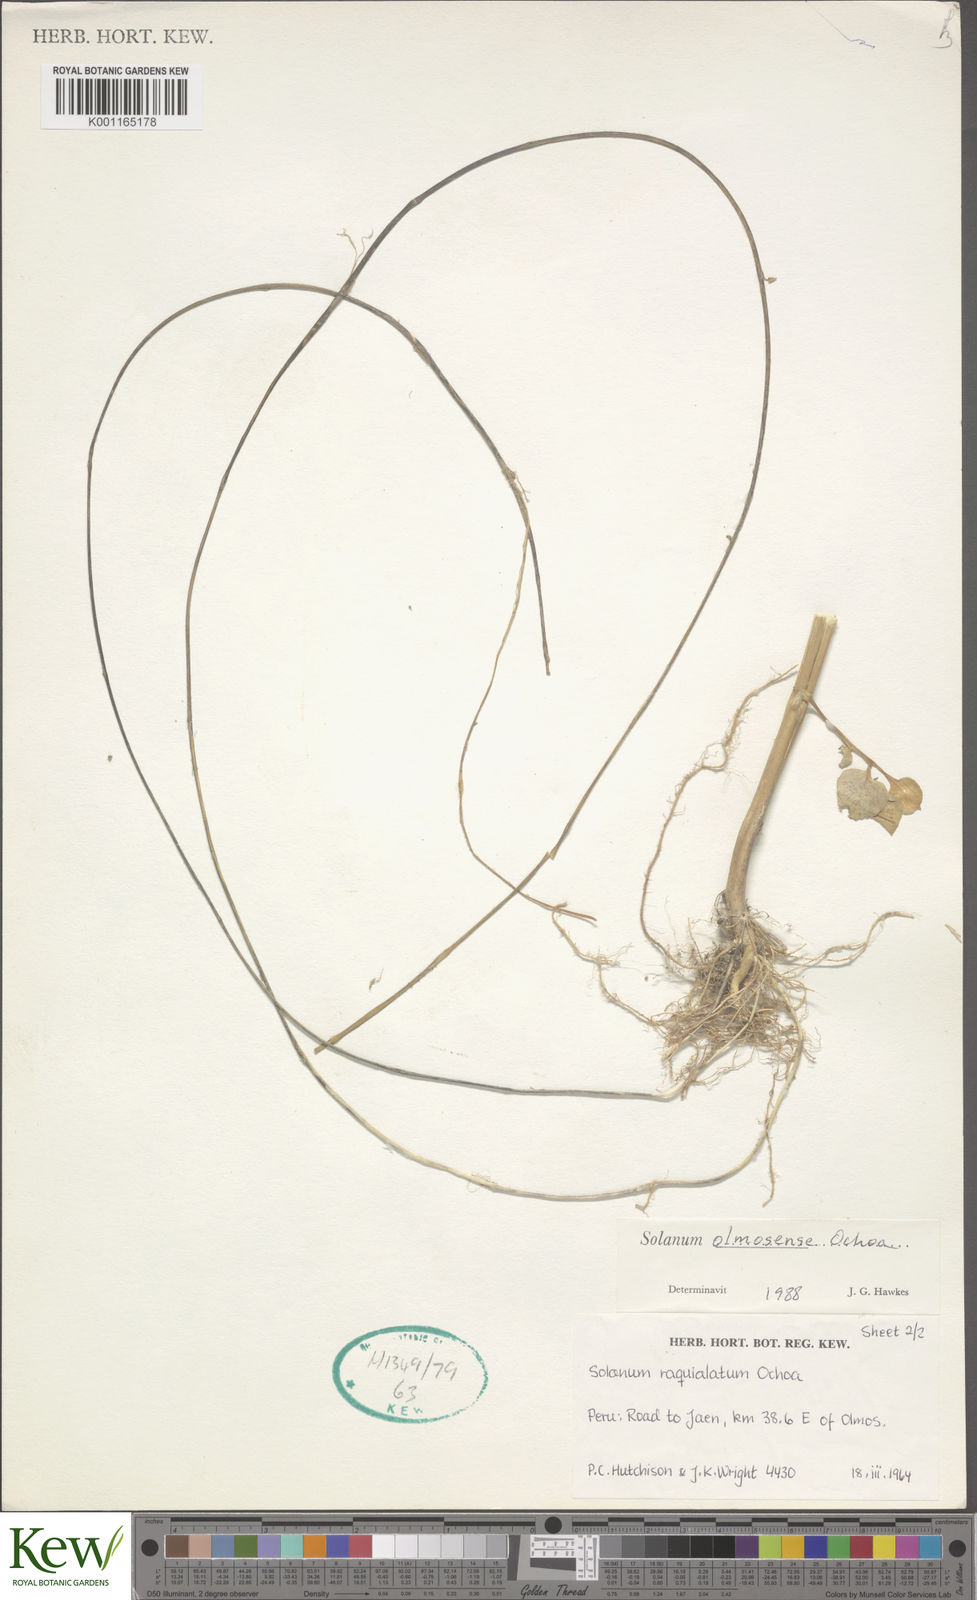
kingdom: Plantae
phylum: Tracheophyta
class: Magnoliopsida
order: Solanales
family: Solanaceae
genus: Solanum
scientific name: Solanum olmosense
